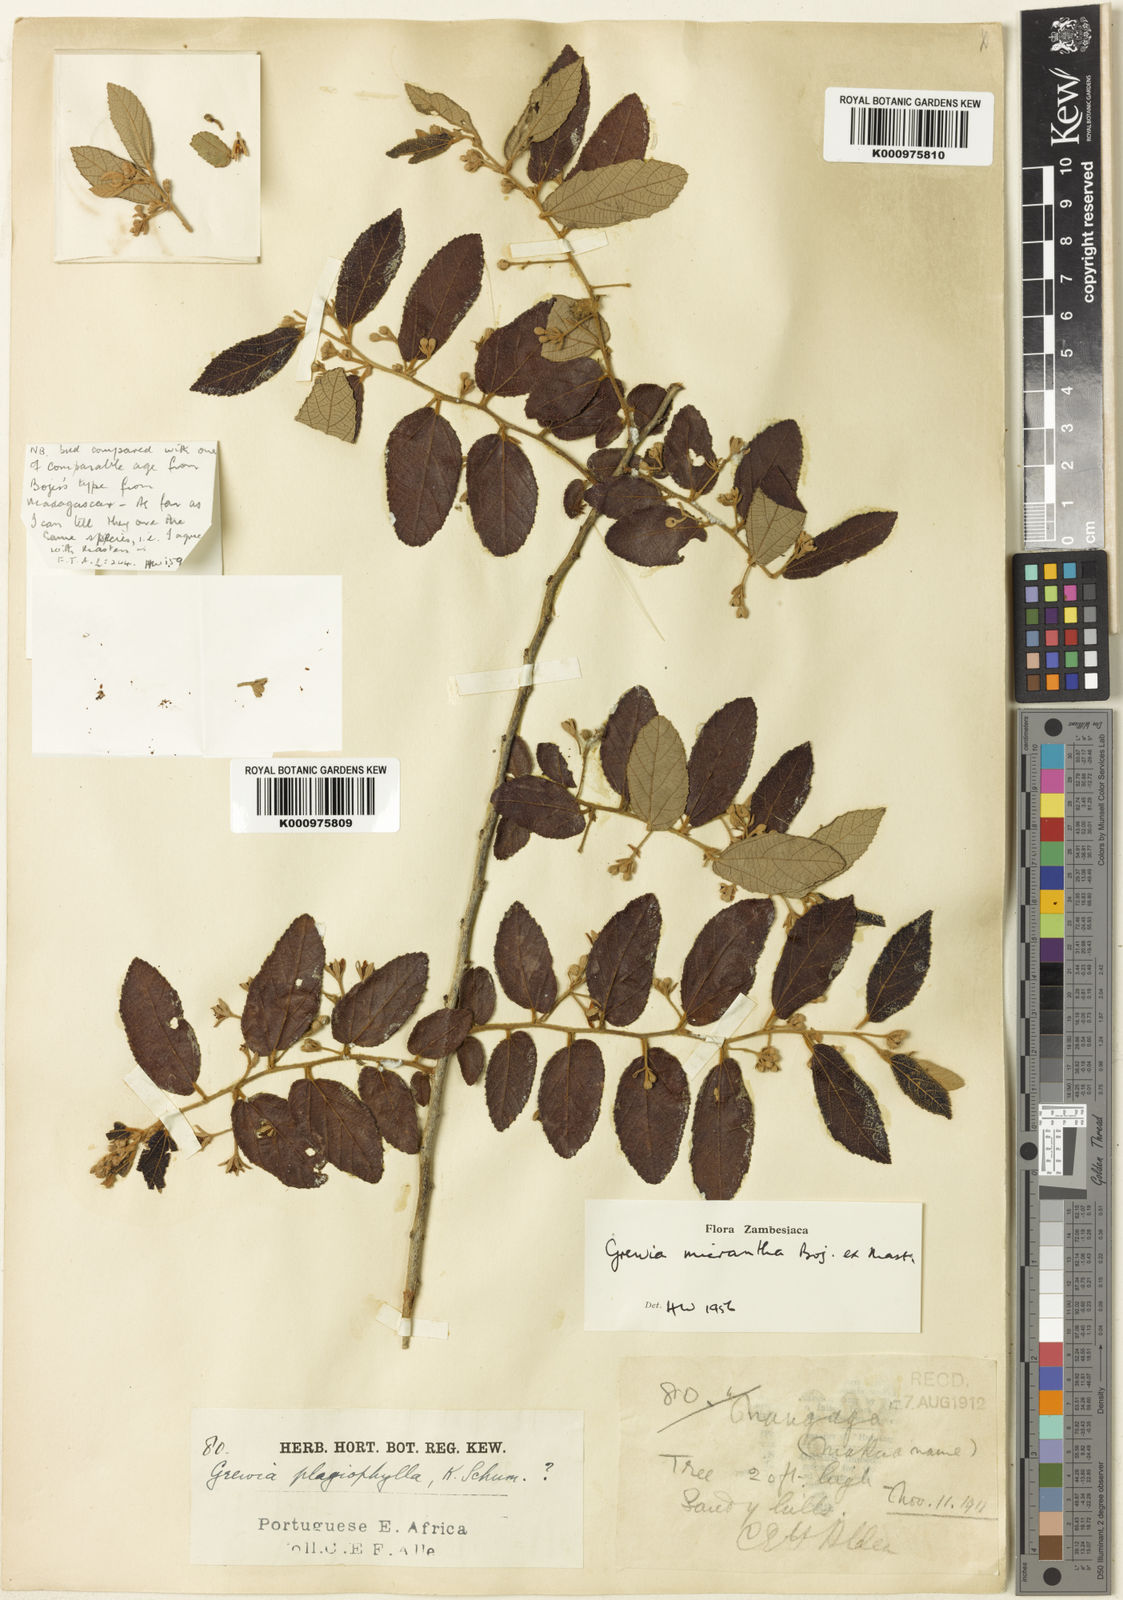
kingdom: Plantae
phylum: Tracheophyta
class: Magnoliopsida
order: Malvales
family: Malvaceae
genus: Grewia
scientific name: Grewia woodiana
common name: Golden fruit raisin
